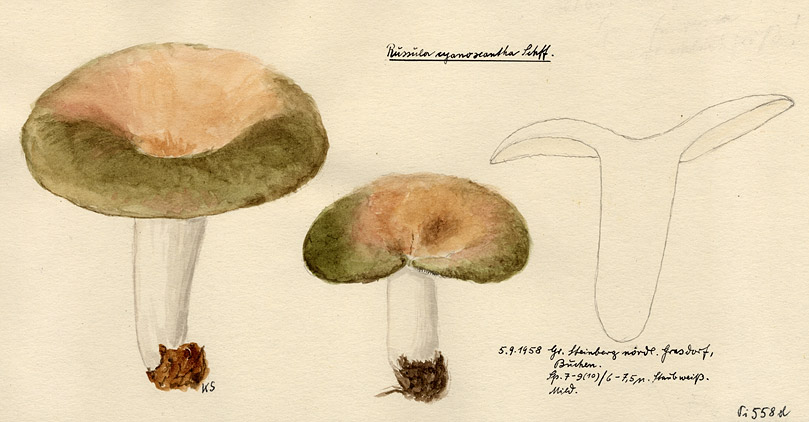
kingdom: Fungi
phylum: Basidiomycota
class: Agaricomycetes
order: Russulales
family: Russulaceae
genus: Russula
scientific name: Russula cyanoxantha
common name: Charcoal burner
